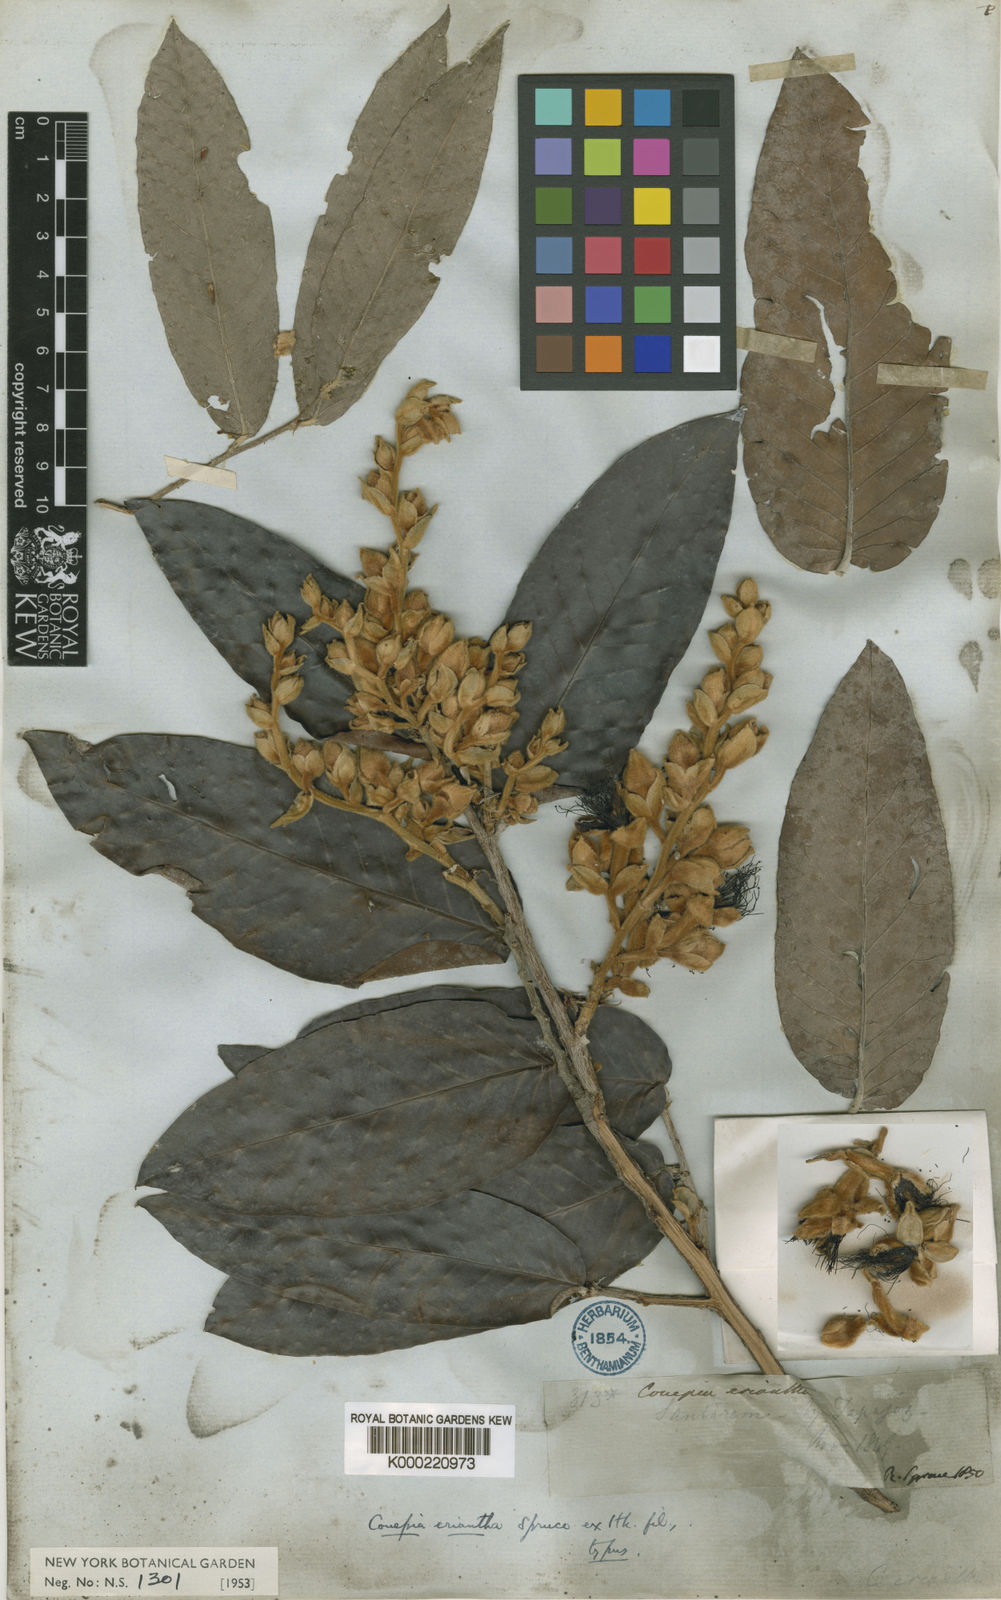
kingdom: Plantae
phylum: Tracheophyta
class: Magnoliopsida
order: Malpighiales
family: Chrysobalanaceae
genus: Couepia
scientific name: Couepia eriantha
